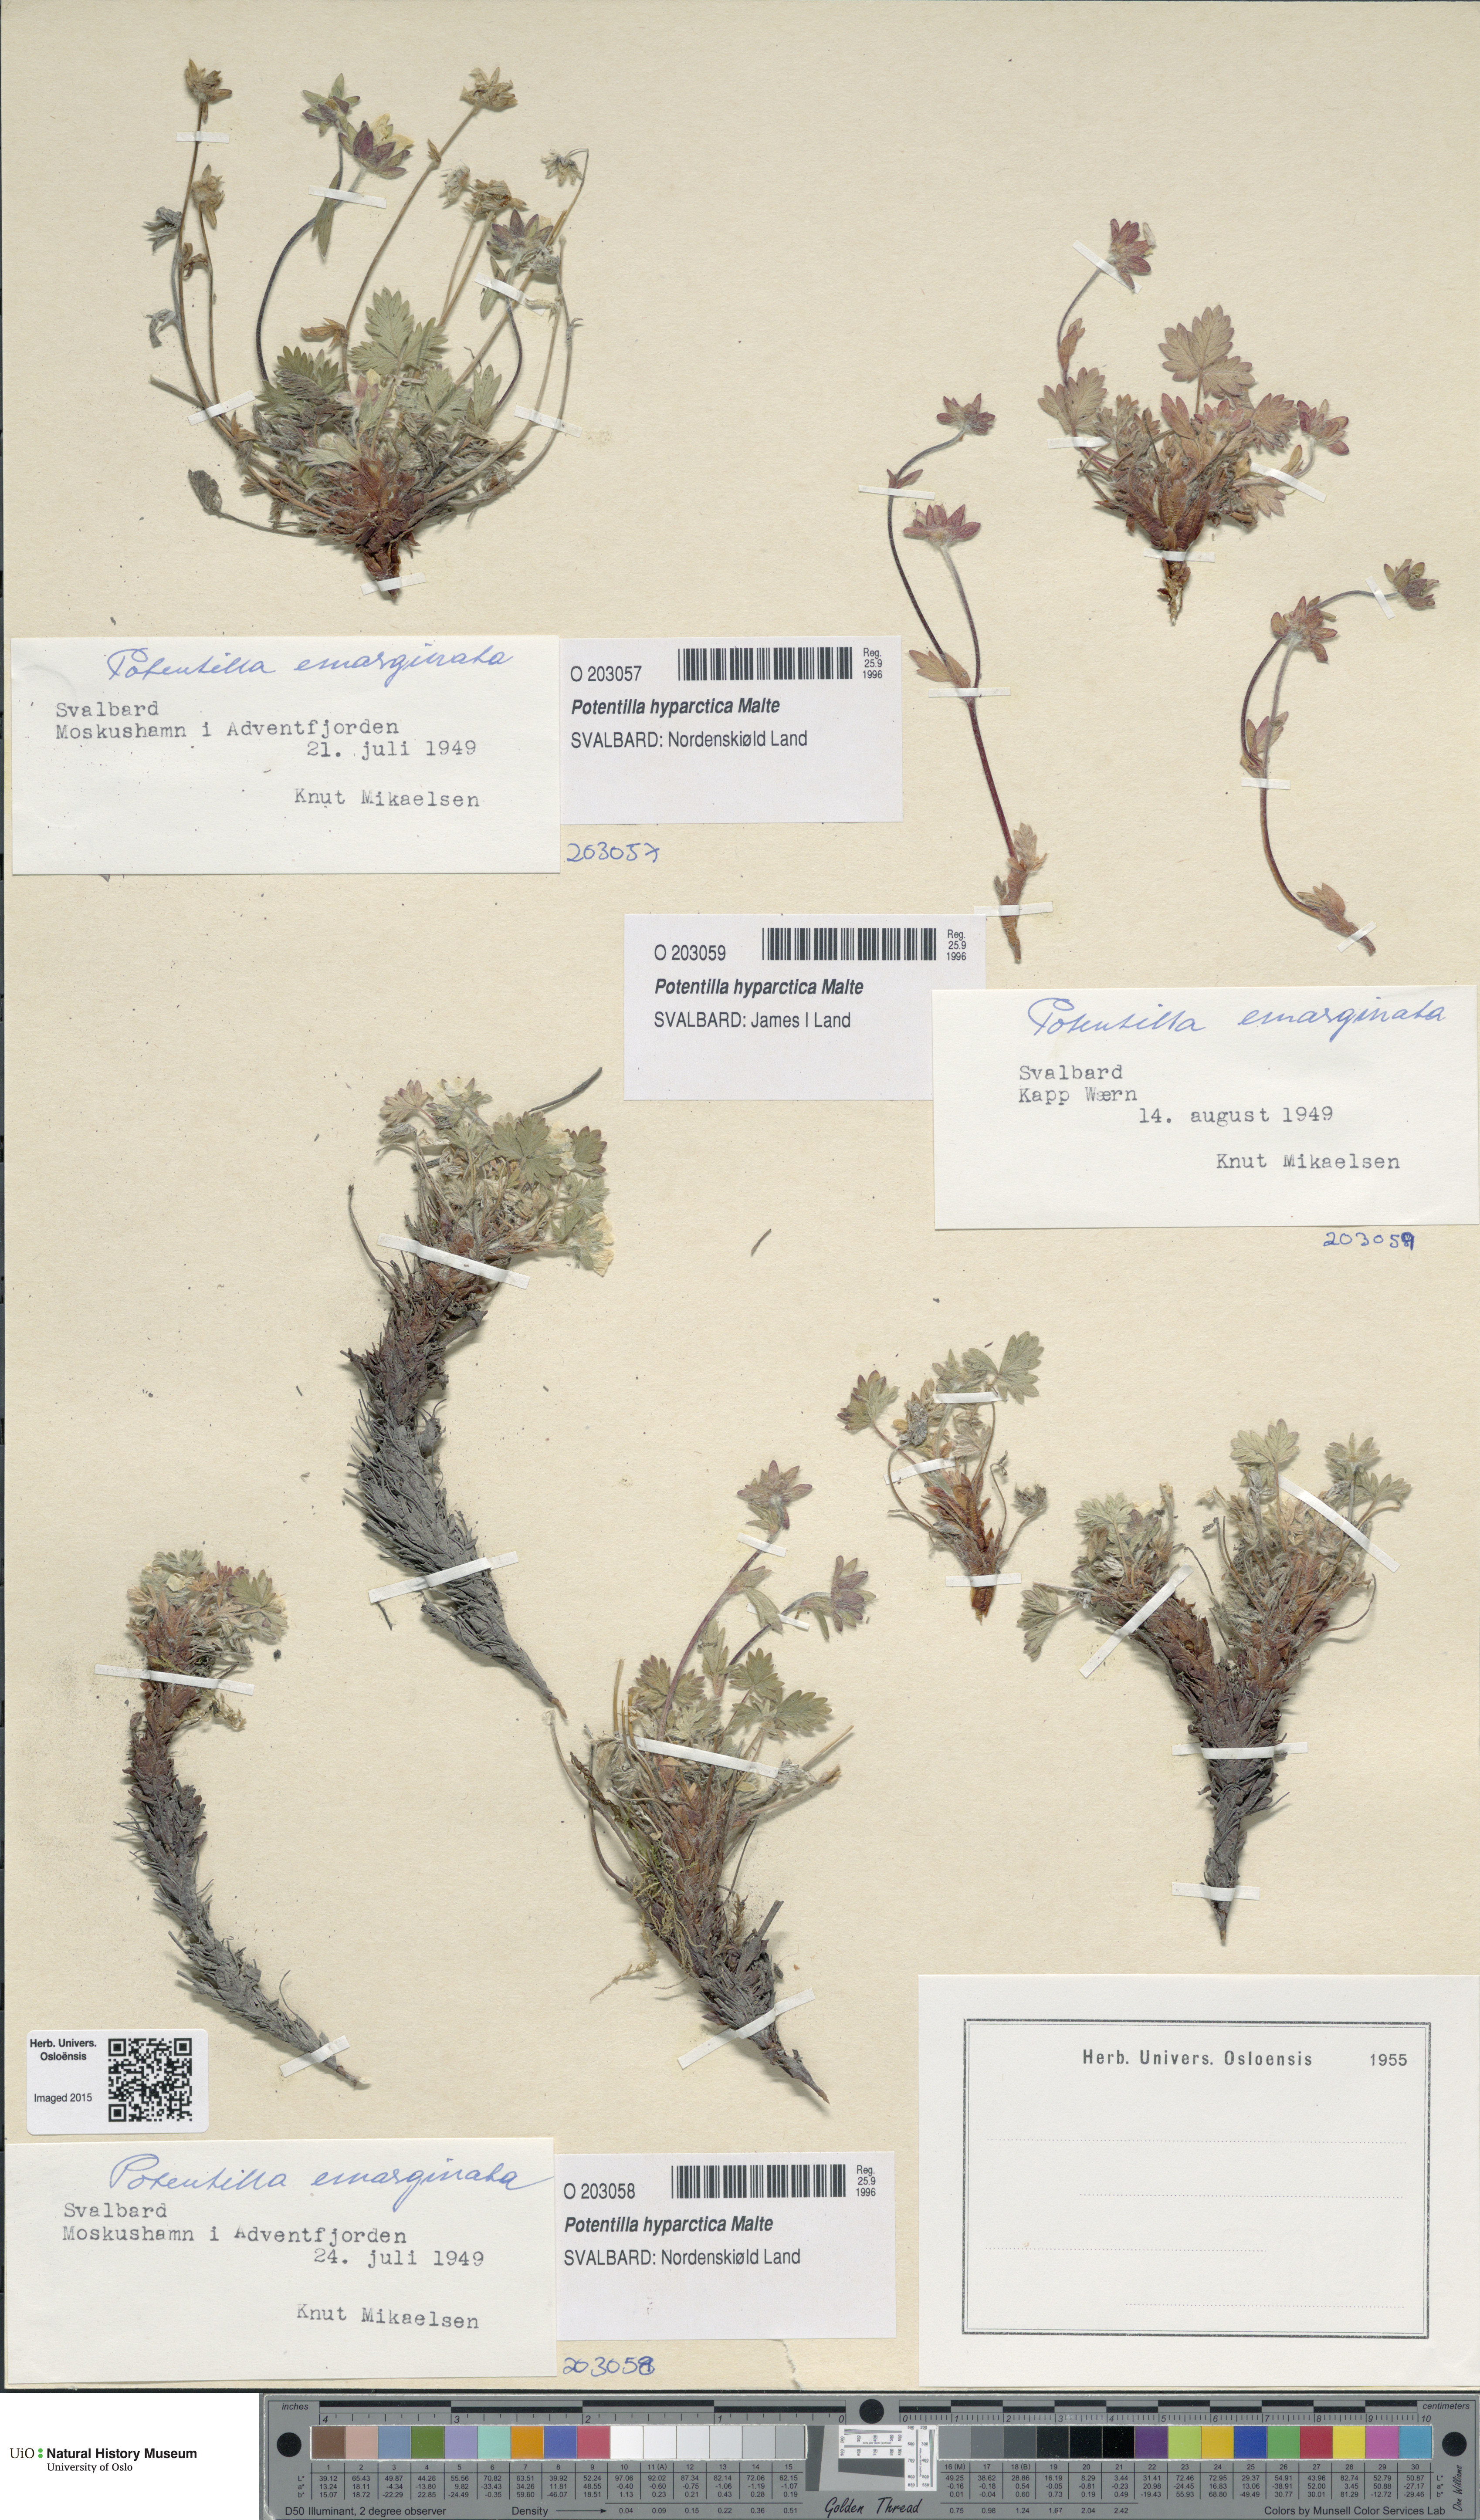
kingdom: Plantae
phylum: Tracheophyta
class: Magnoliopsida
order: Rosales
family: Rosaceae
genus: Potentilla
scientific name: Potentilla hyparctica
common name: Arctic cinquefoil
